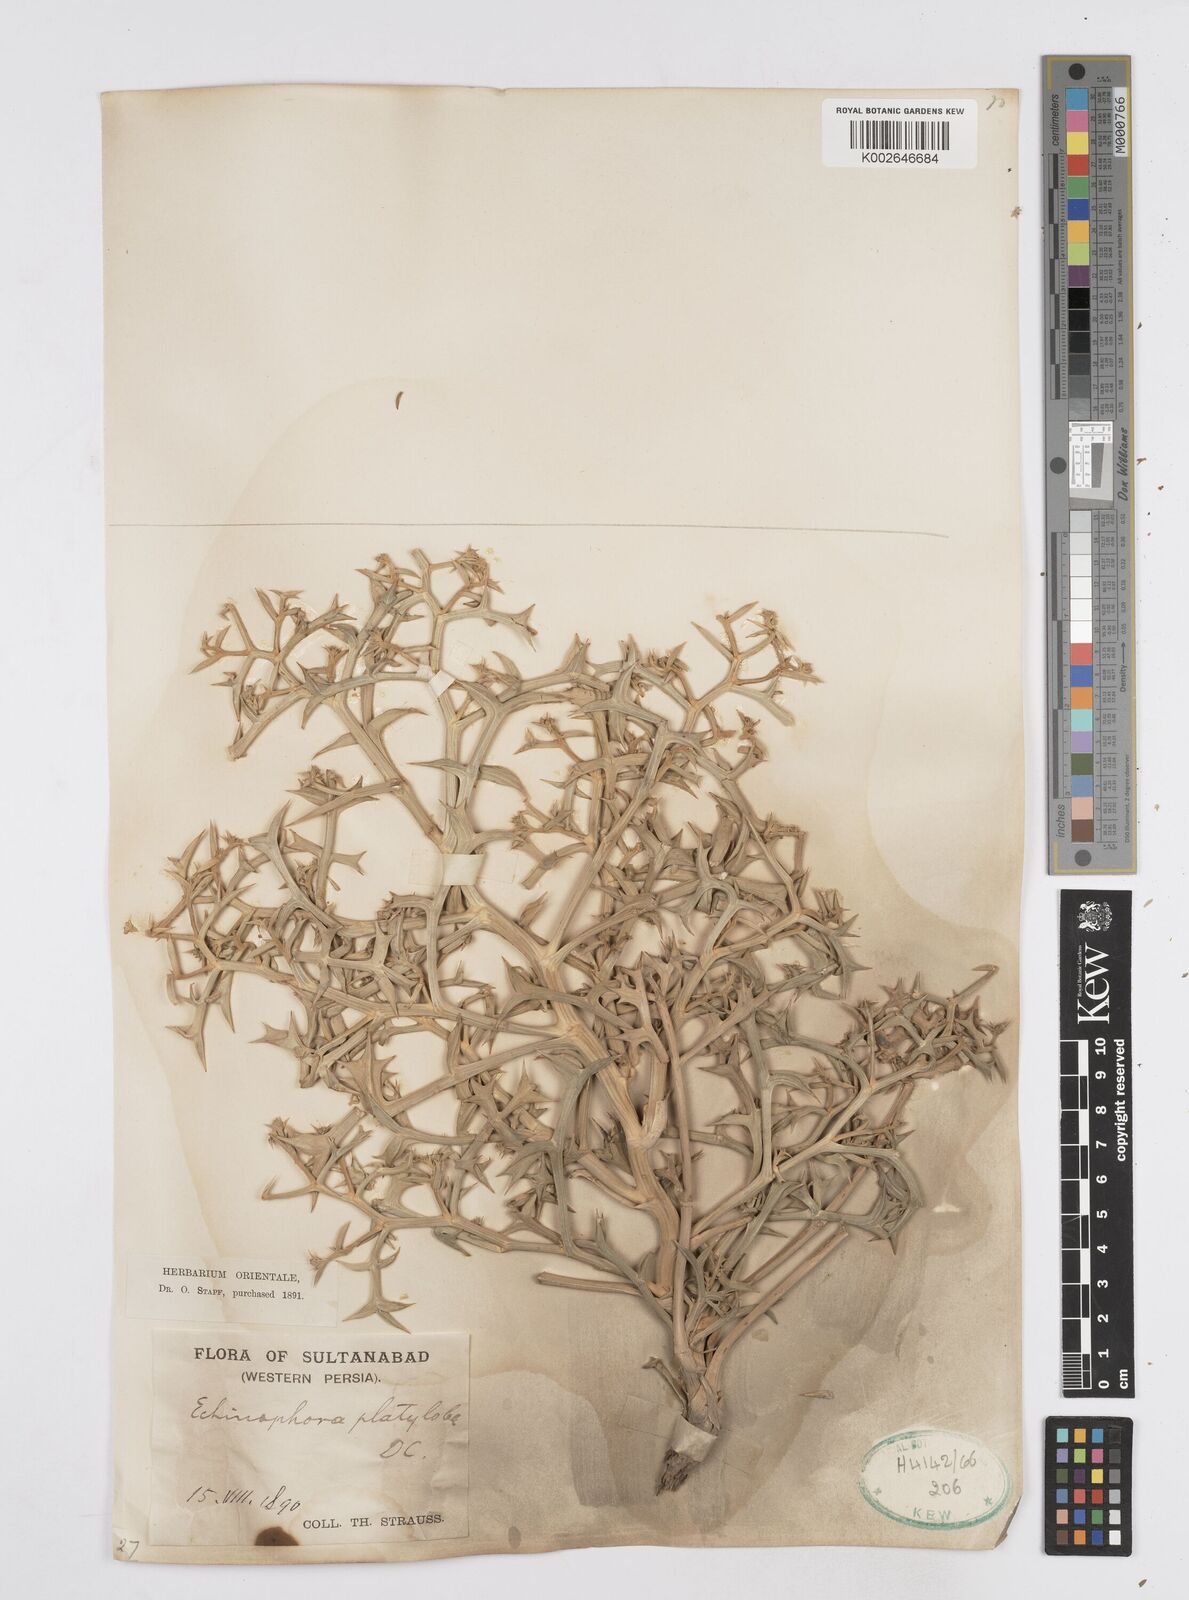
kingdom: Plantae
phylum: Tracheophyta
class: Magnoliopsida
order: Apiales
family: Apiaceae
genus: Echinophora
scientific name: Echinophora platyloba
